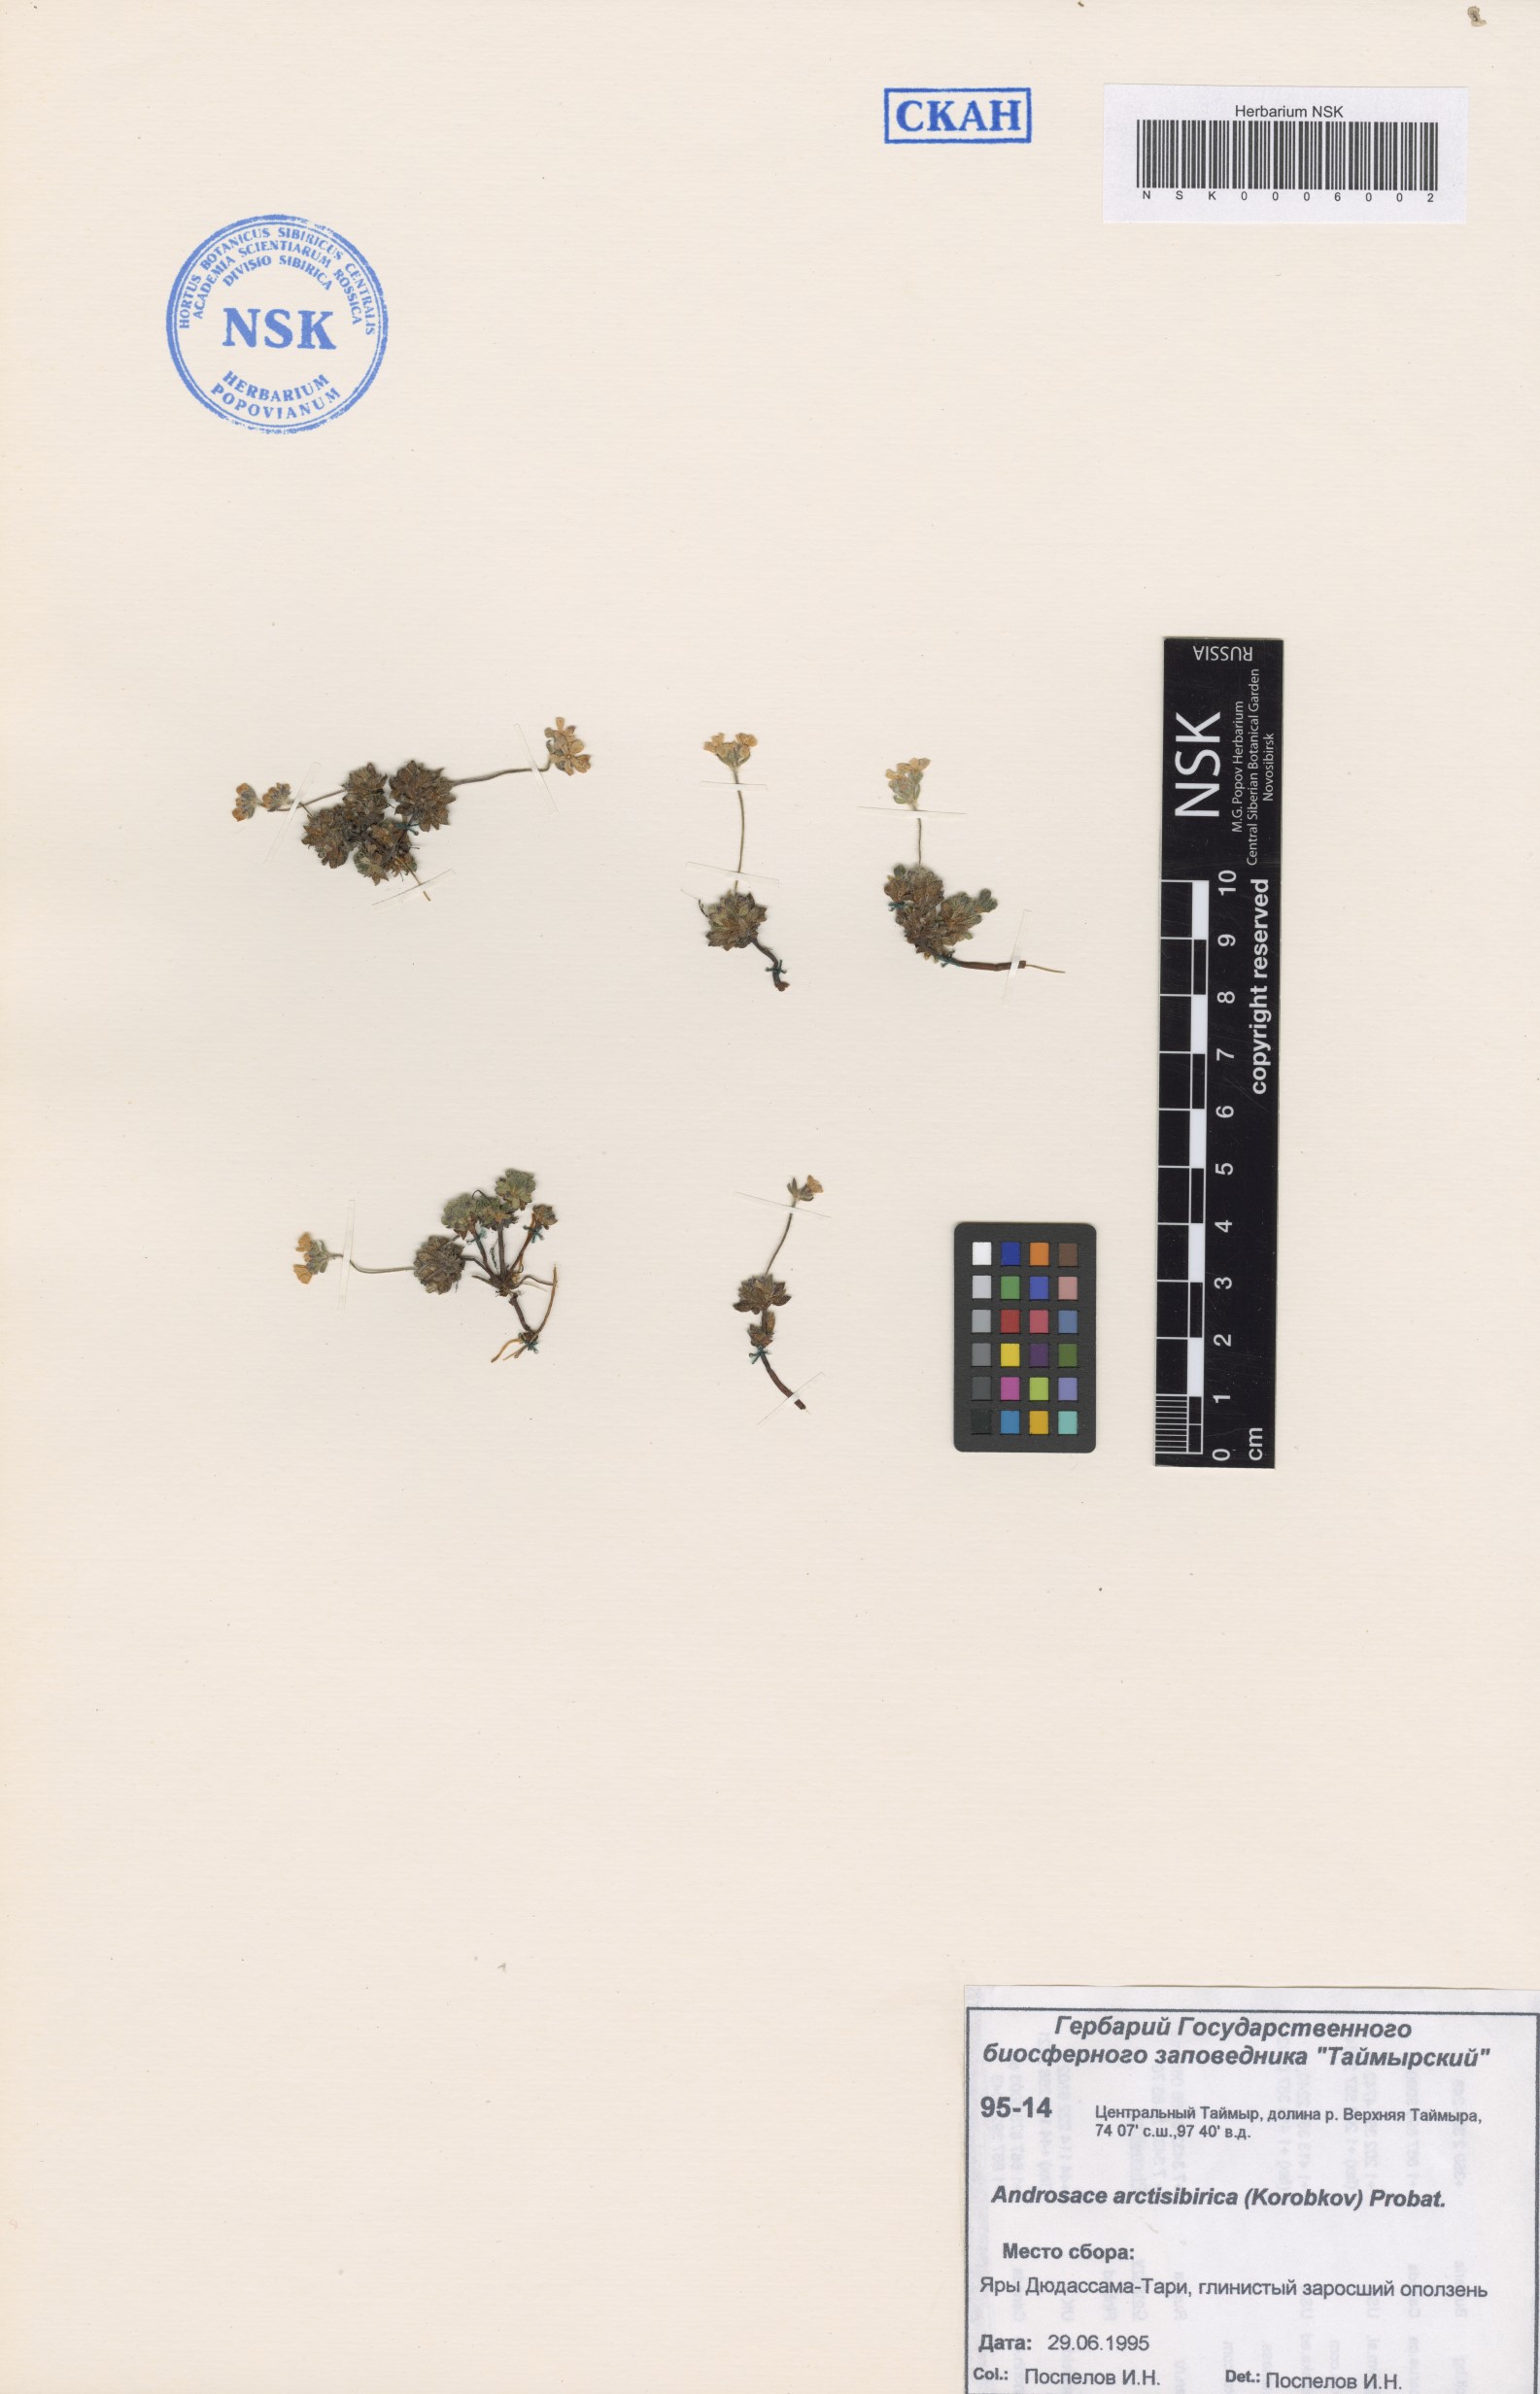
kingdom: Plantae
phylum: Tracheophyta
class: Magnoliopsida
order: Ericales
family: Primulaceae
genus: Androsace
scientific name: Androsace bungeana
